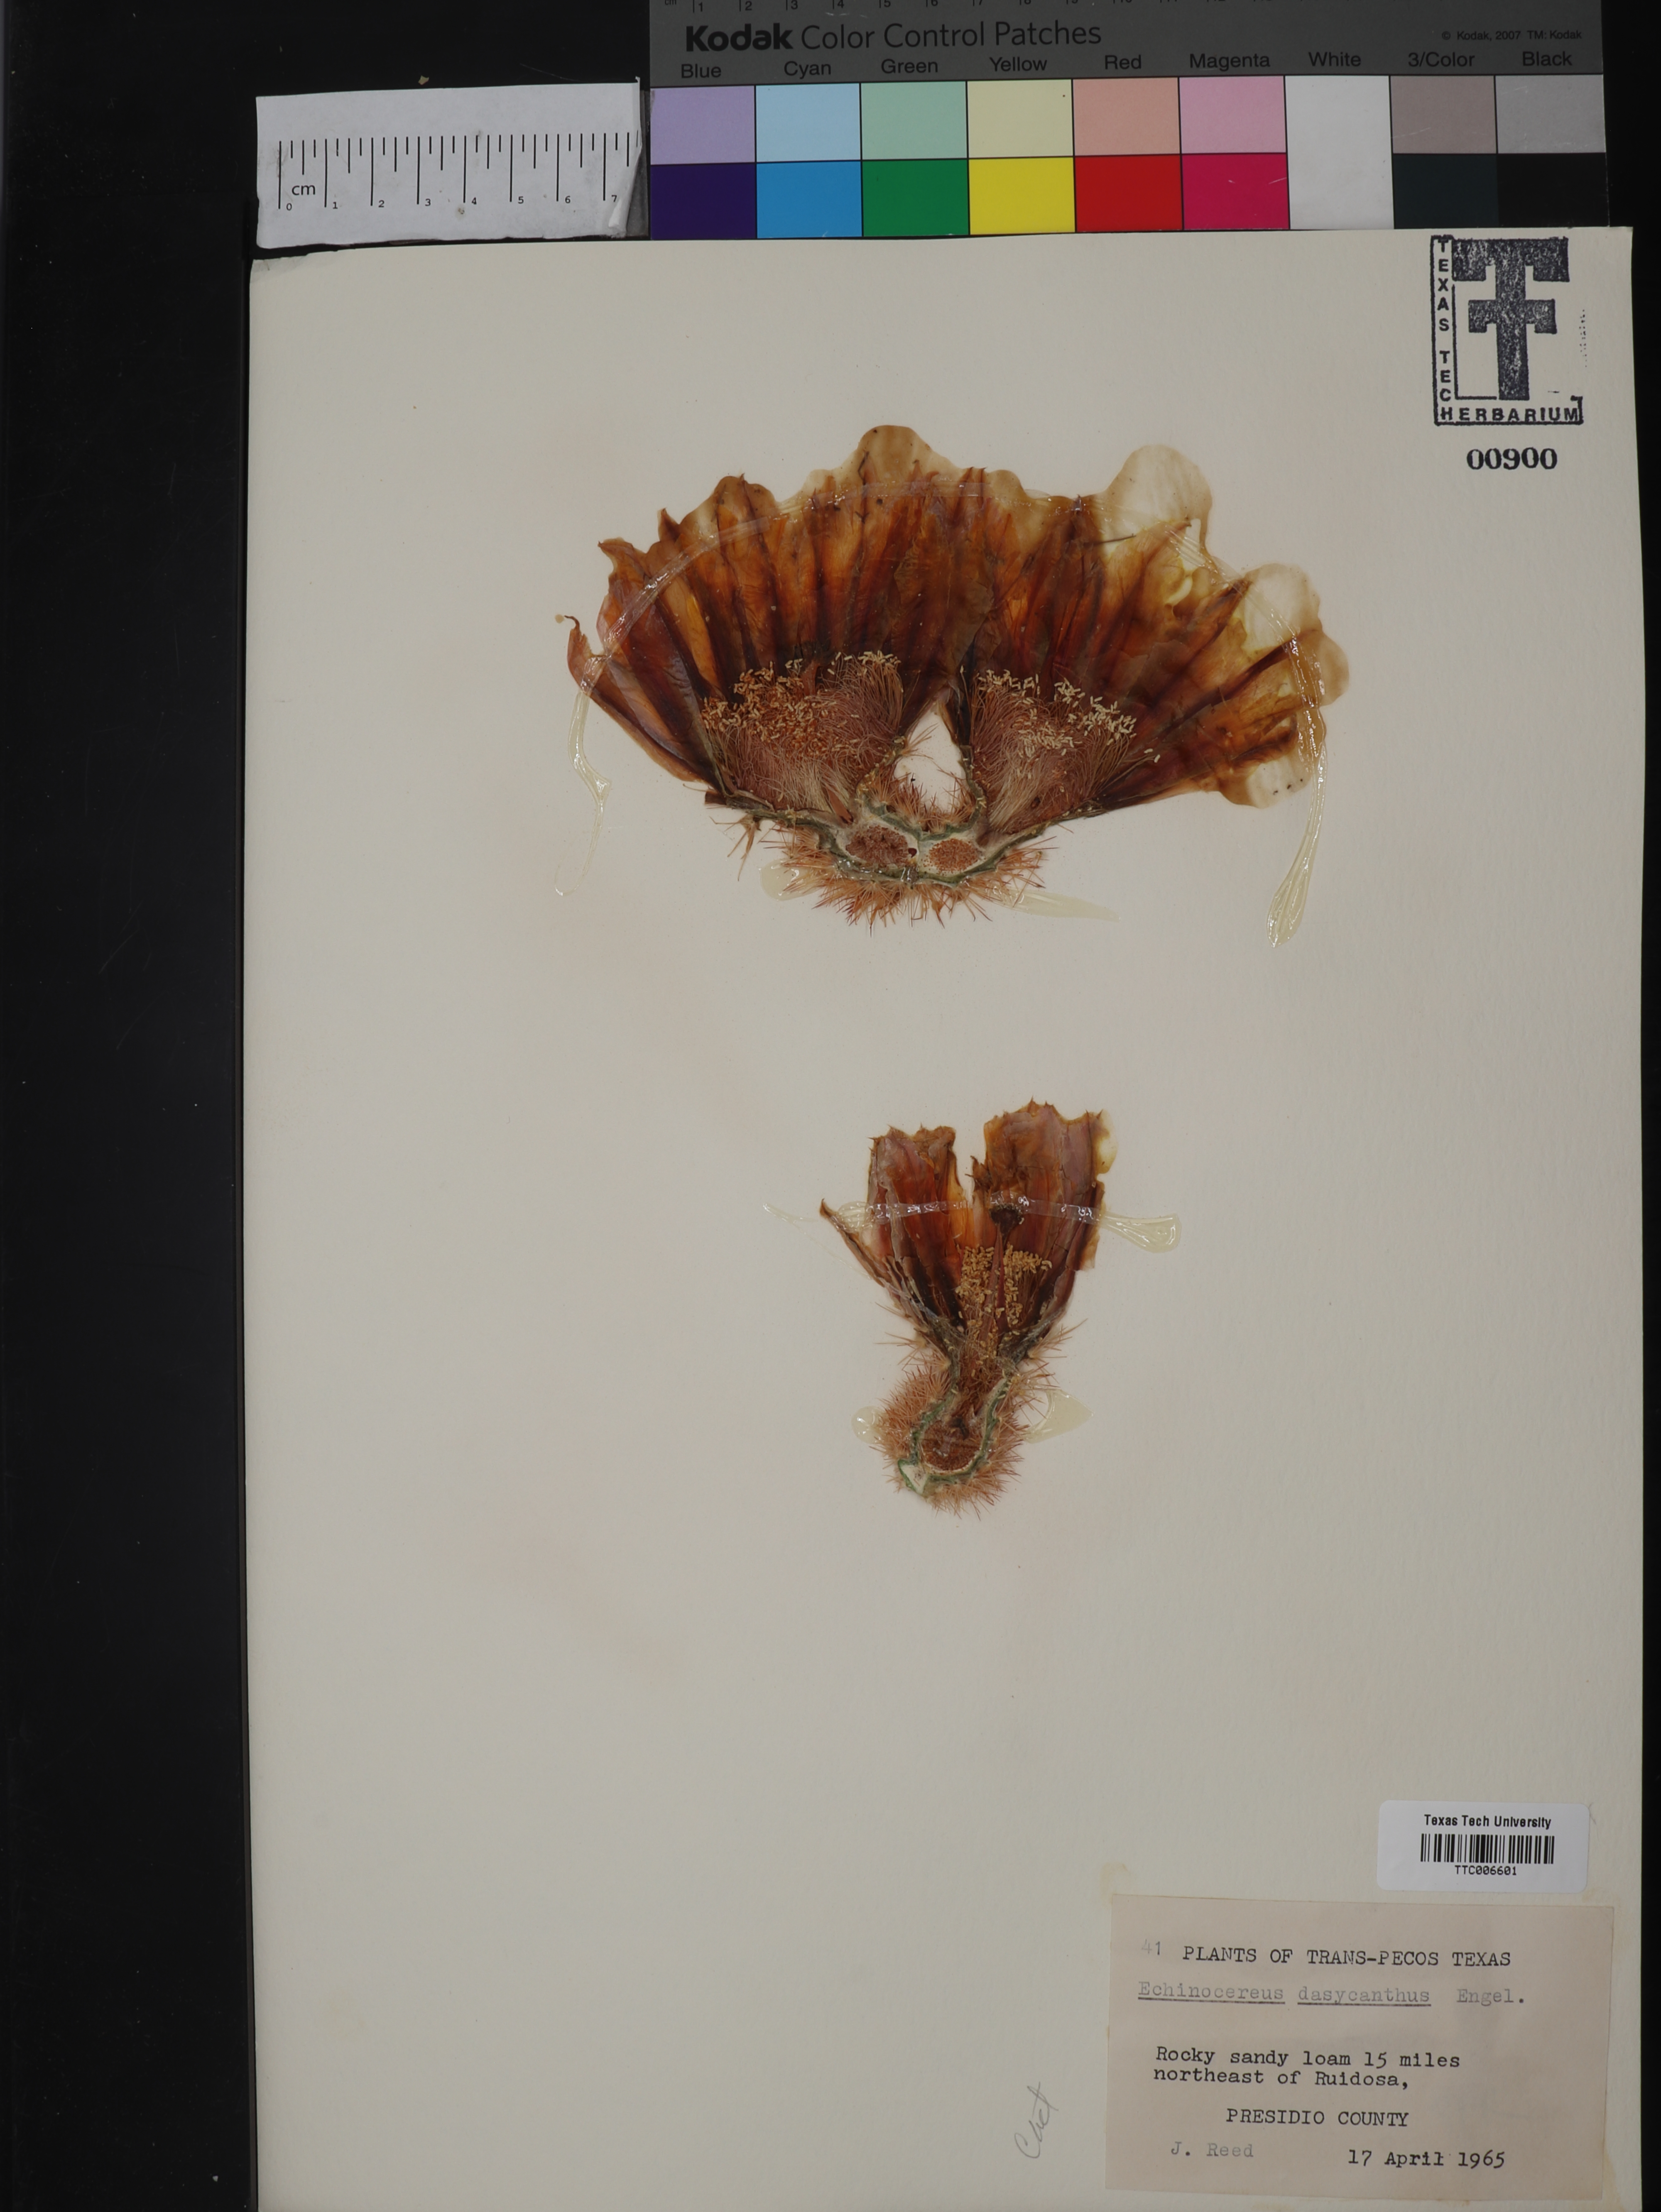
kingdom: Plantae
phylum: Tracheophyta
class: Magnoliopsida
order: Caryophyllales
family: Cactaceae
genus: Sclerocactus
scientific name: Sclerocactus intertextus
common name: White fish-hook cactus
